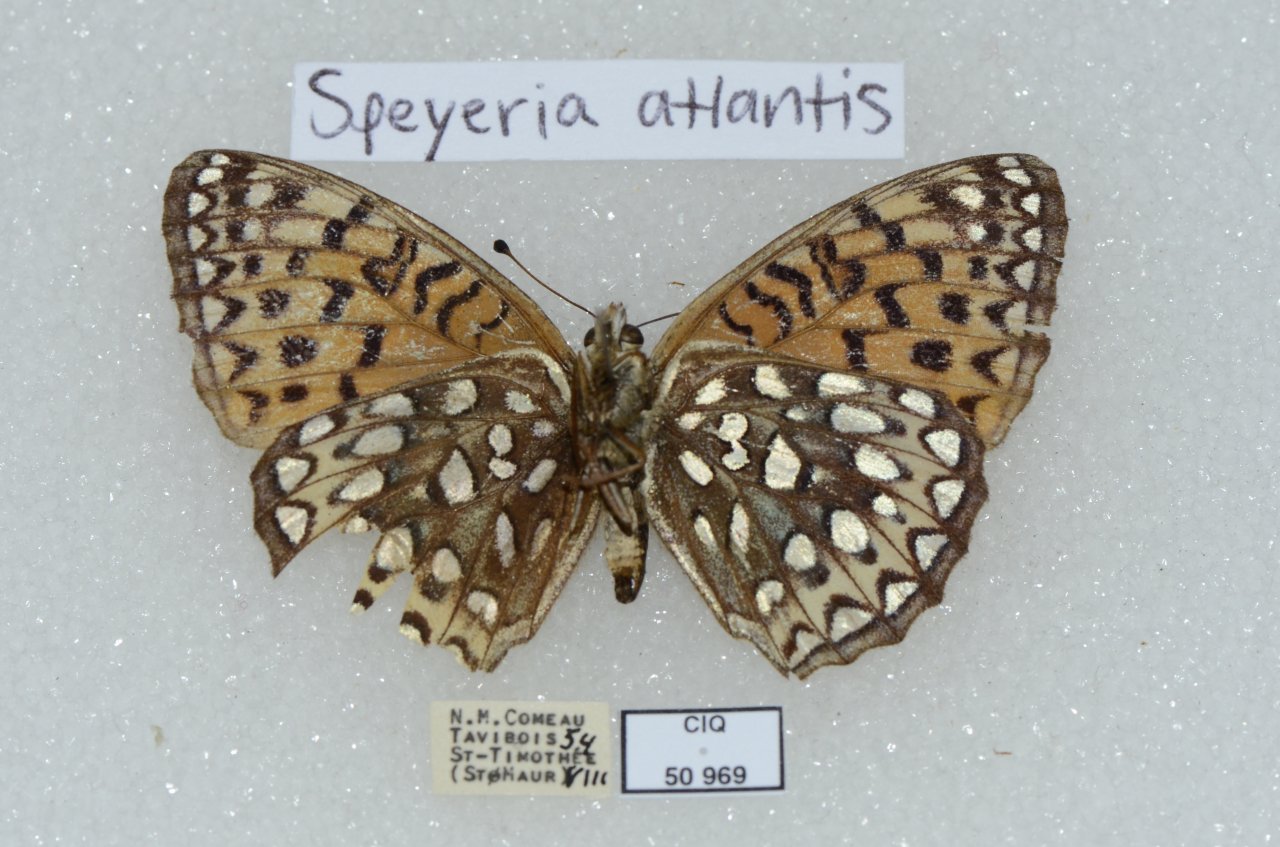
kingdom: Animalia
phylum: Arthropoda
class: Insecta
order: Lepidoptera
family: Nymphalidae
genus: Speyeria
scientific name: Speyeria atlantis
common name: Atlantis Fritillary
